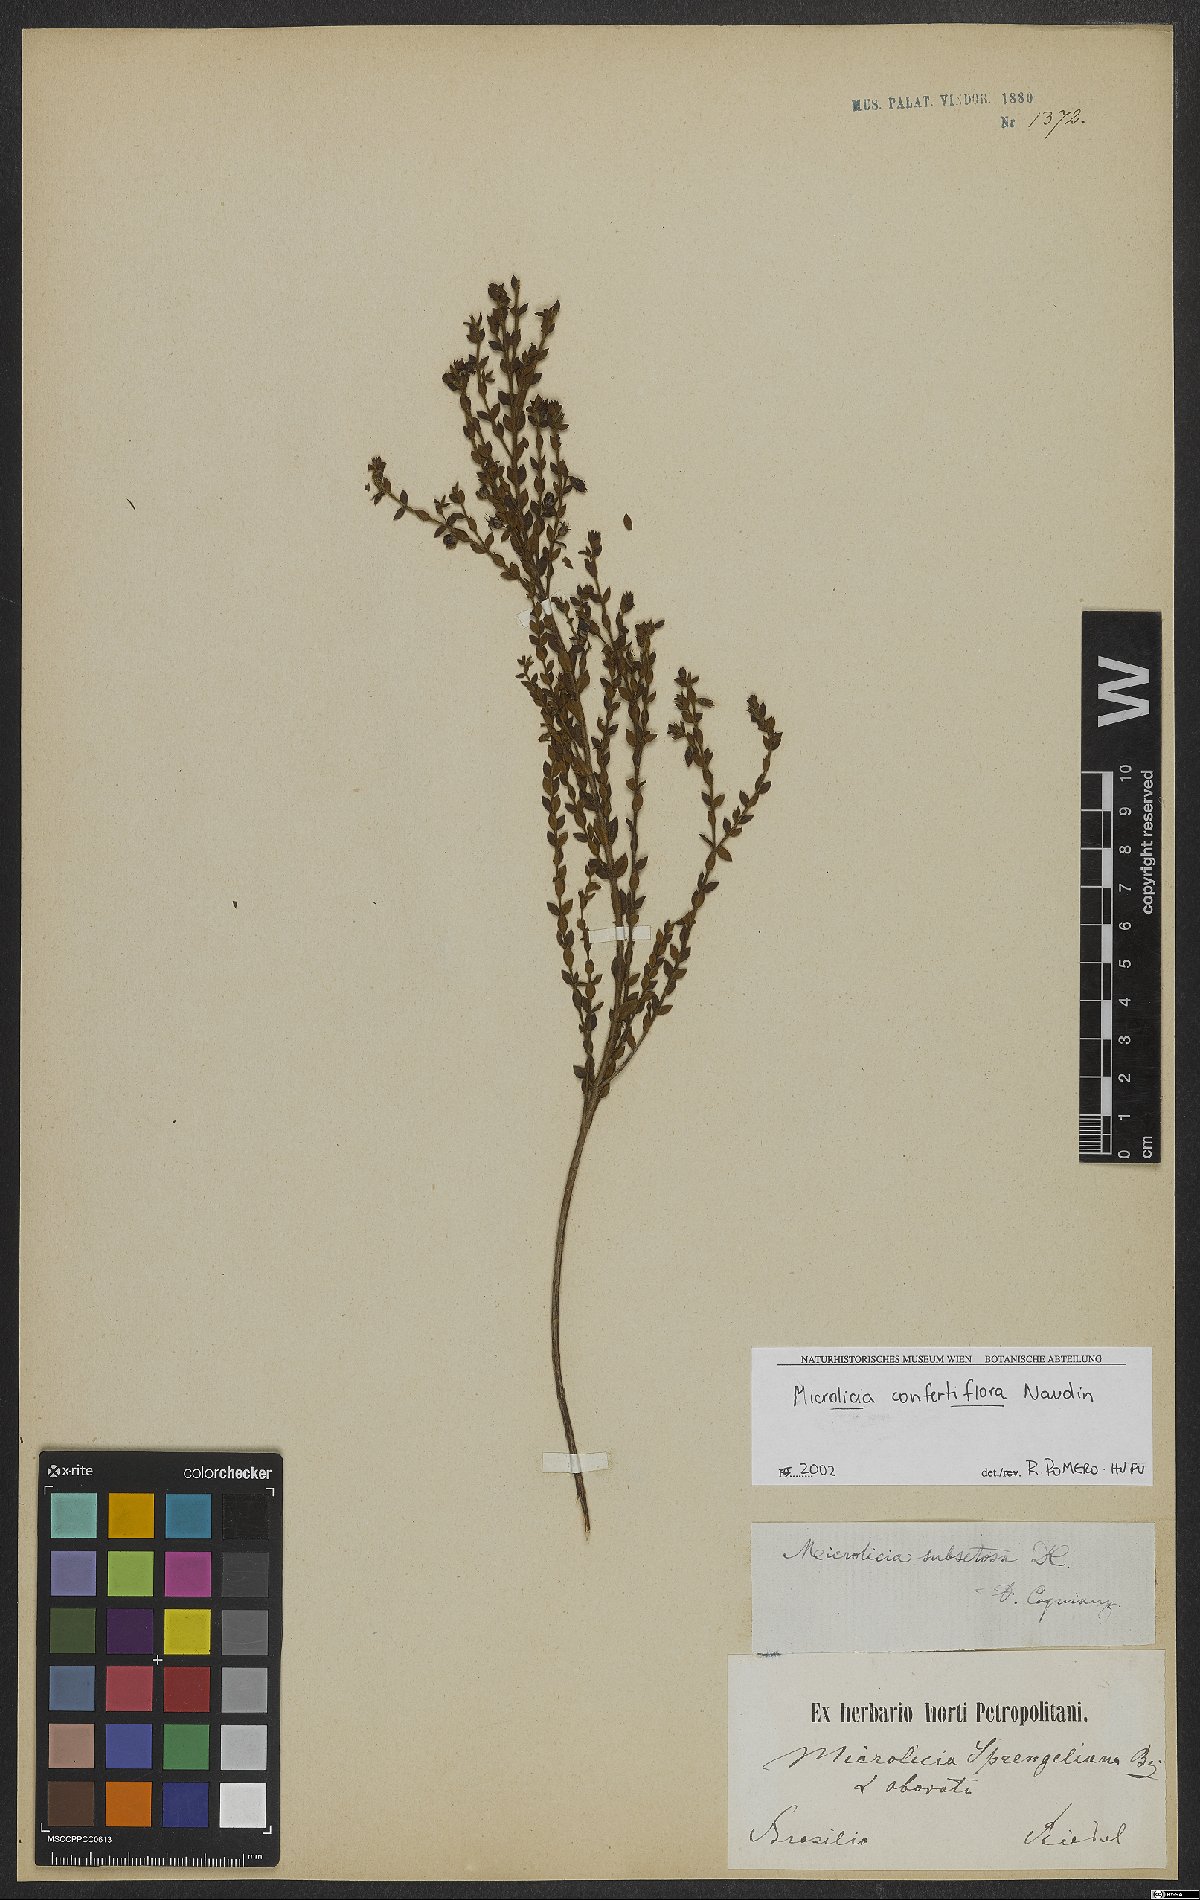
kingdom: Plantae
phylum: Tracheophyta
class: Magnoliopsida
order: Myrtales
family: Melastomataceae
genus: Microlicia
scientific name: Microlicia confertiflora
